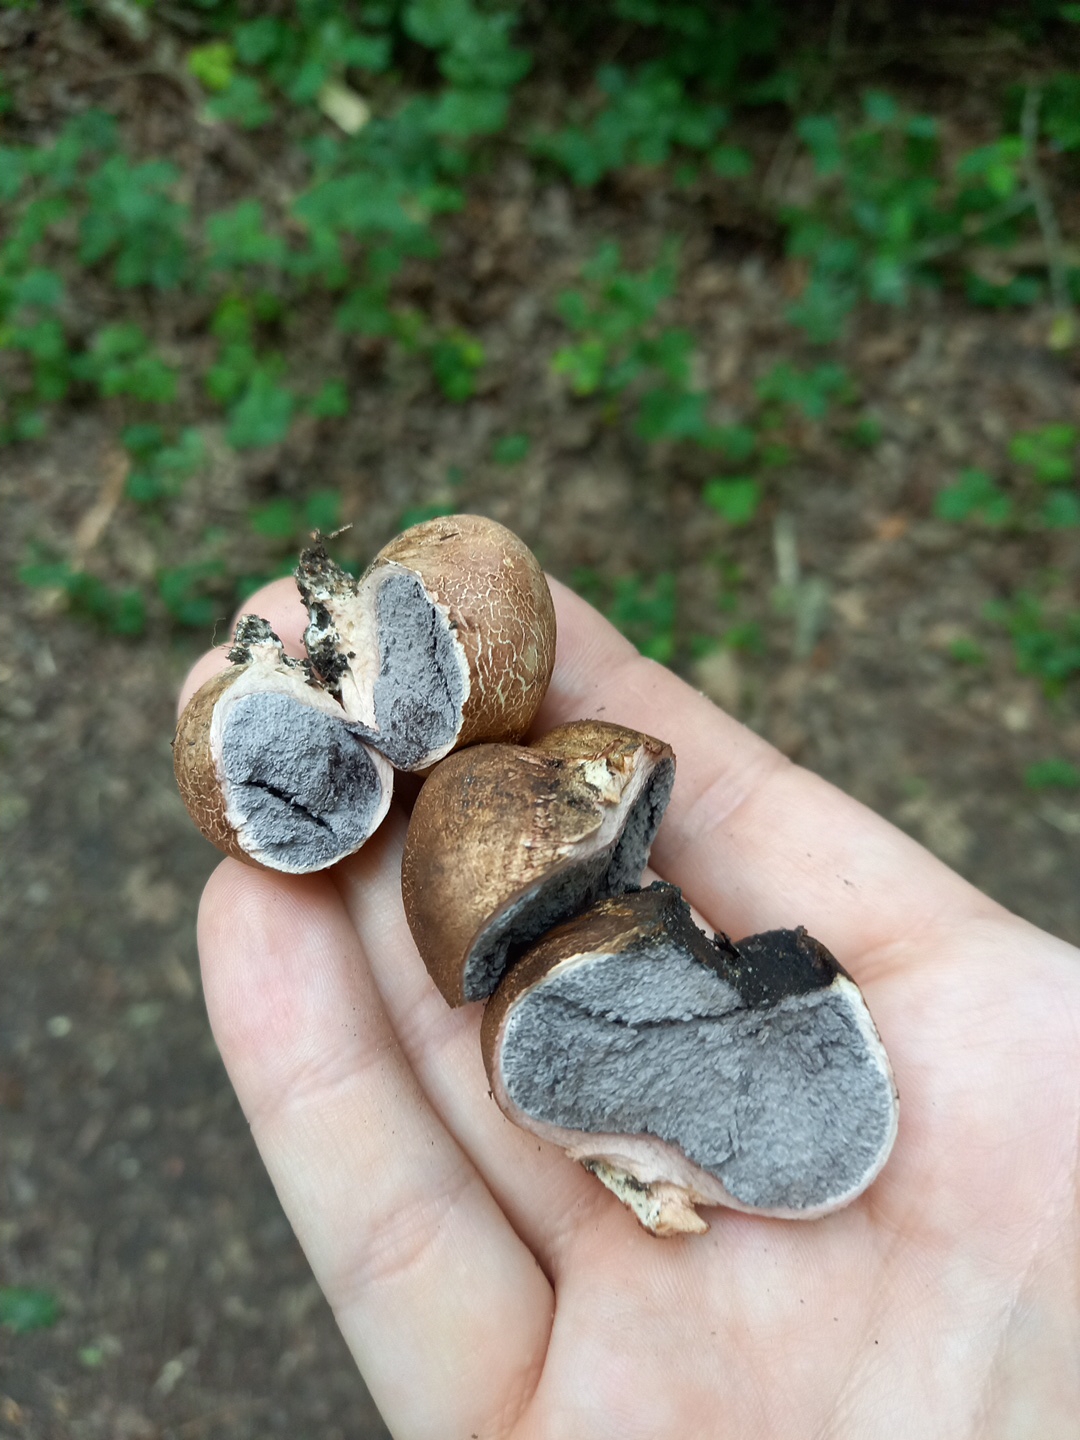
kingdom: Fungi
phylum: Basidiomycota
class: Agaricomycetes
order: Boletales
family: Sclerodermataceae
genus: Scleroderma
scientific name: Scleroderma
